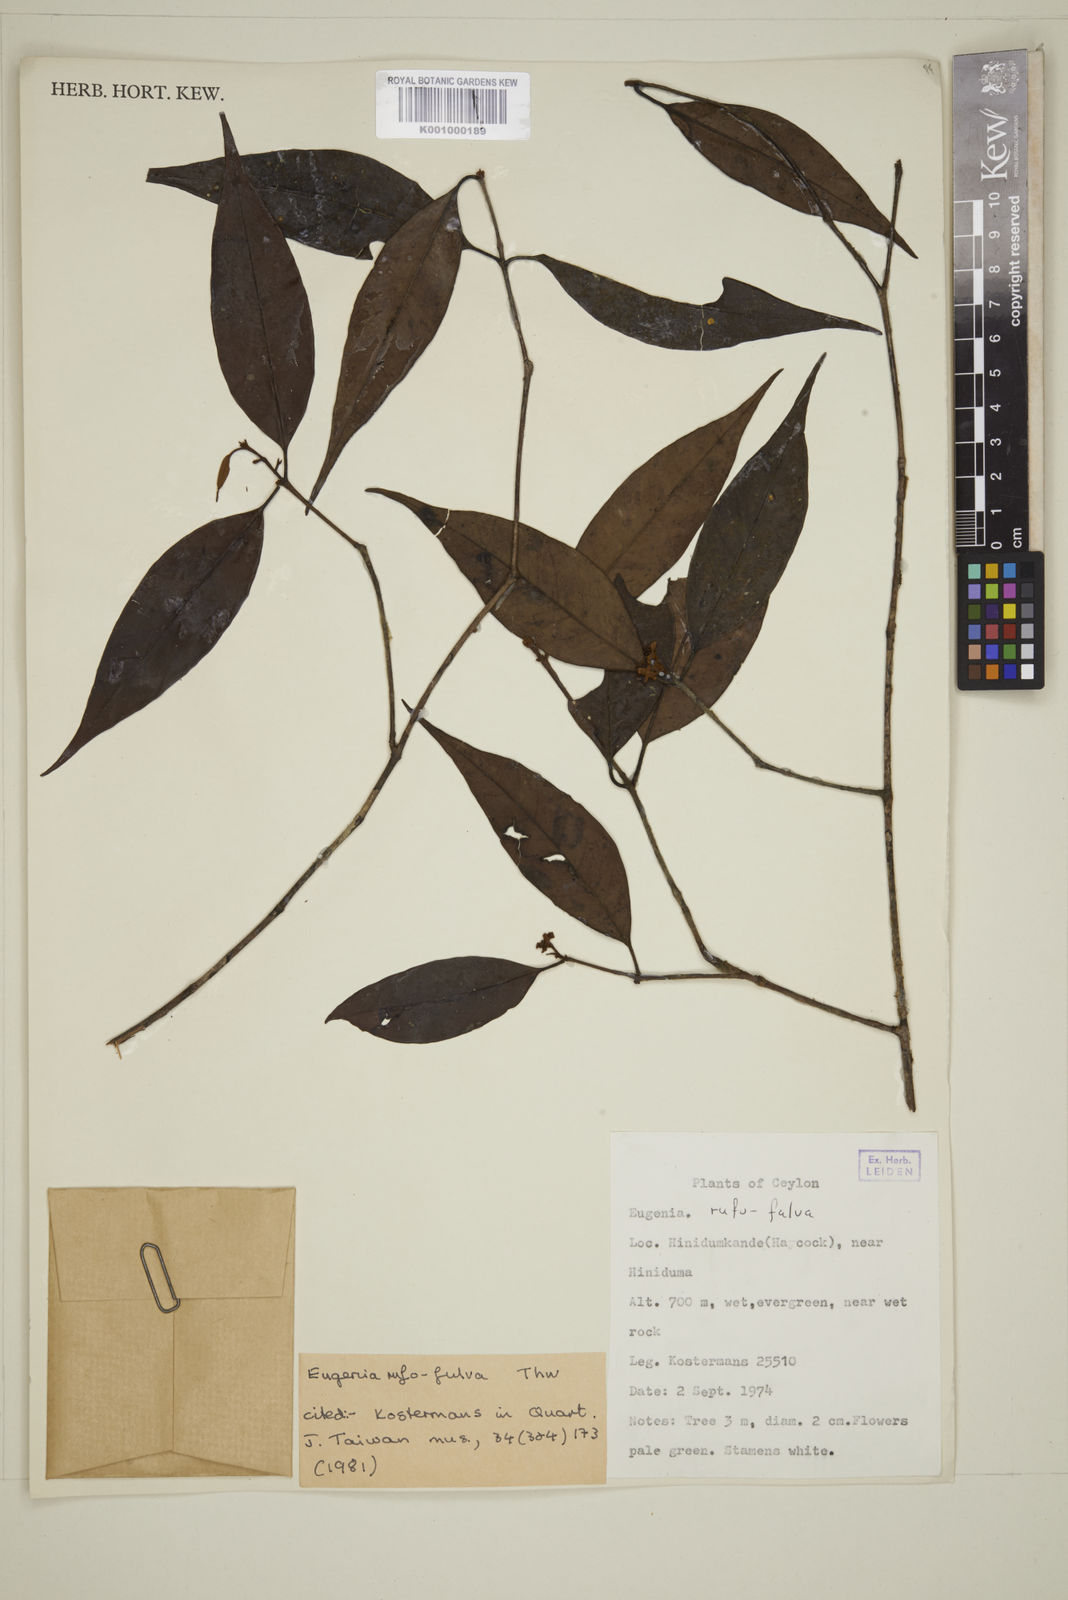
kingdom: Plantae
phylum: Tracheophyta
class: Magnoliopsida
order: Myrtales
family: Myrtaceae
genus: Eugenia
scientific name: Eugenia rufofulva
